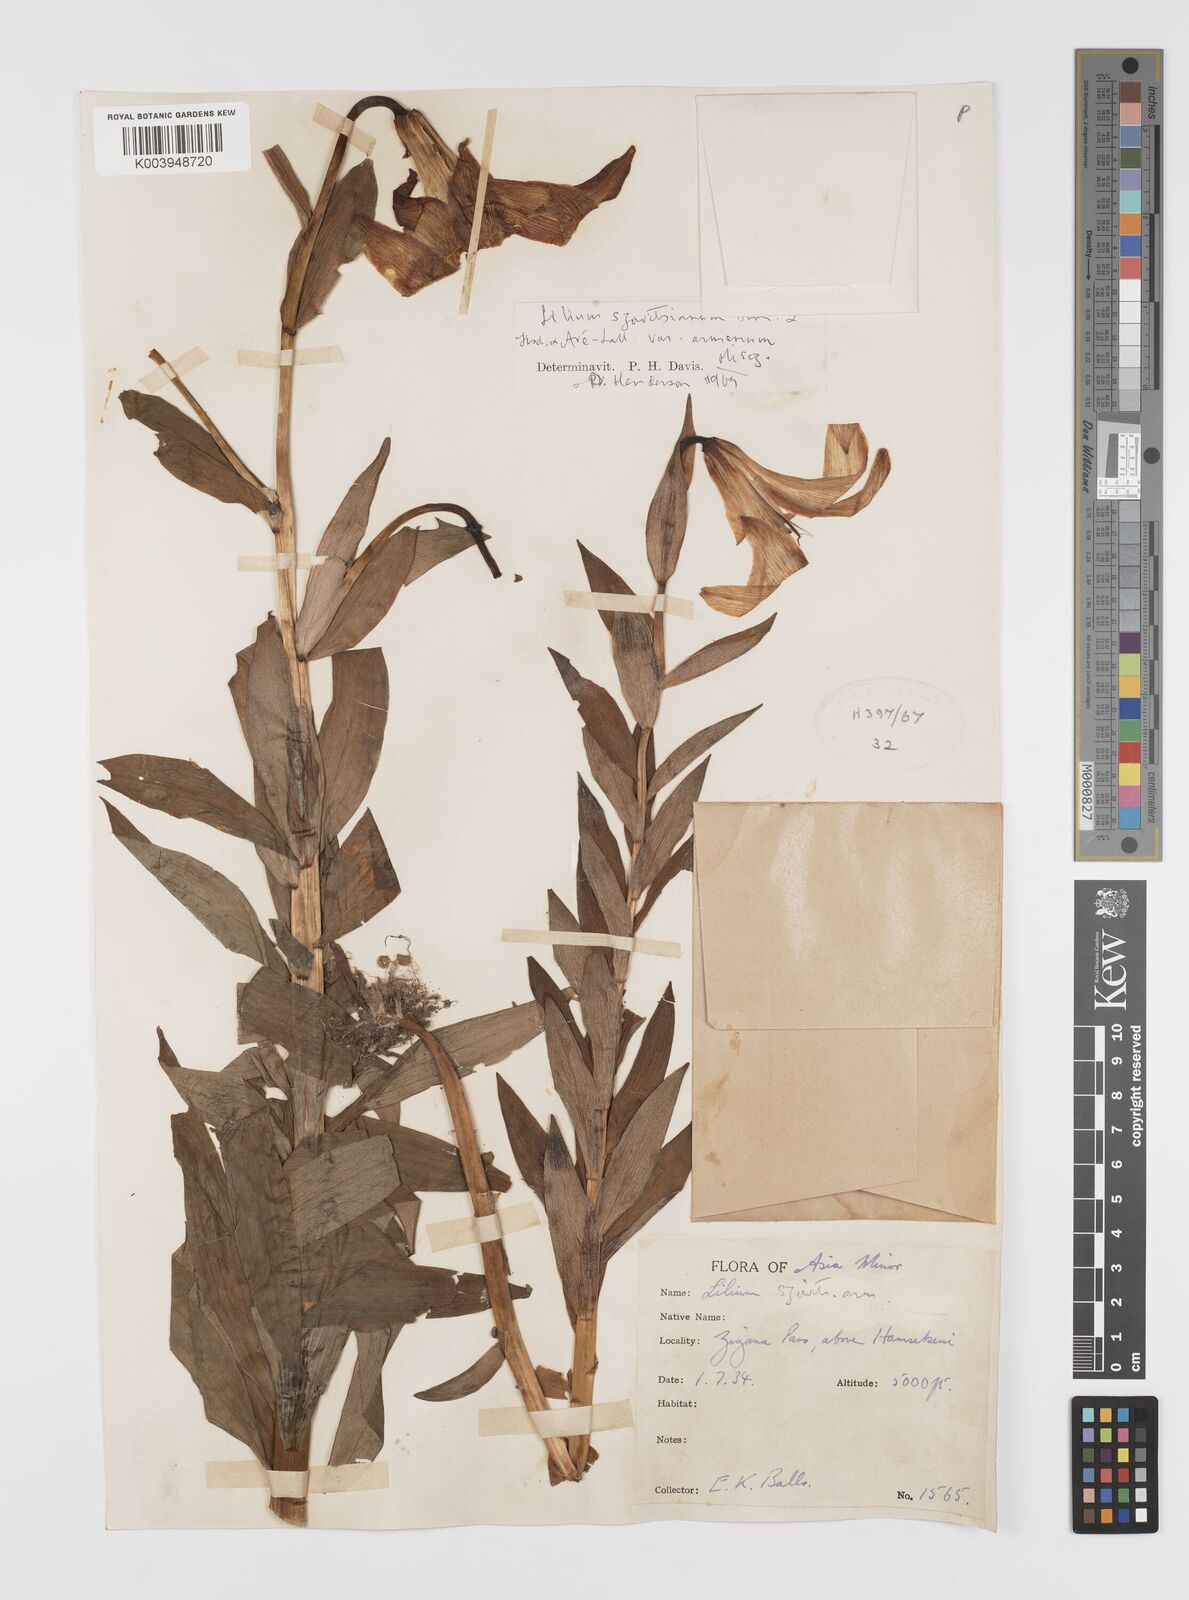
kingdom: Plantae
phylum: Tracheophyta
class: Liliopsida
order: Liliales
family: Liliaceae
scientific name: Liliaceae
